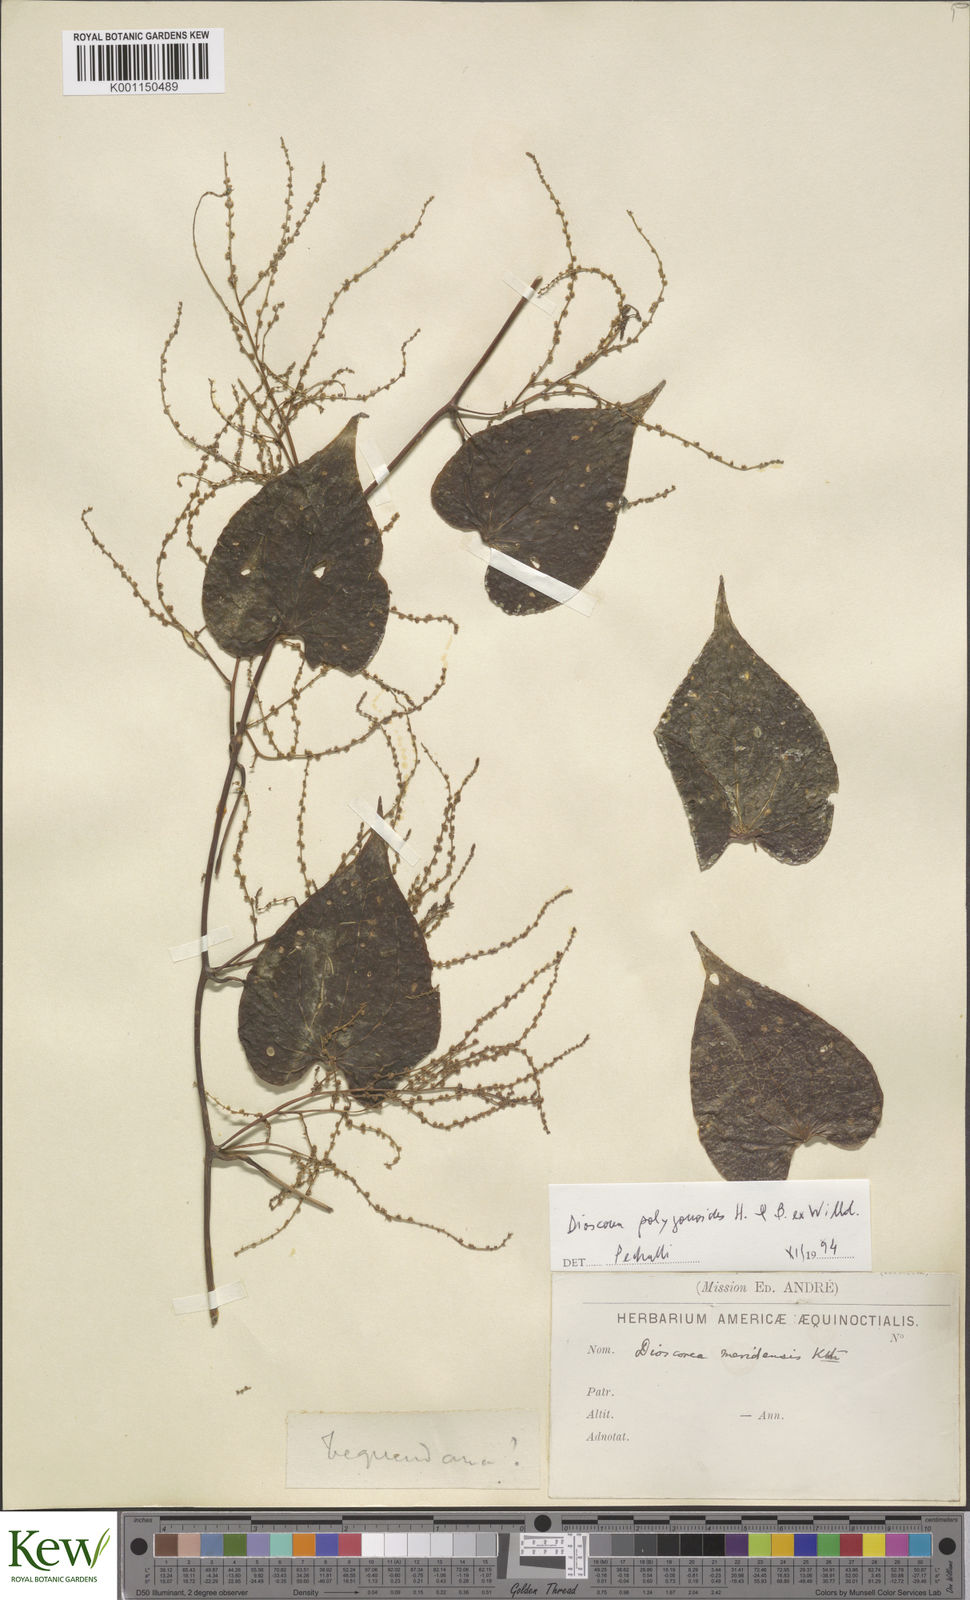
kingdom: Plantae
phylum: Tracheophyta
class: Liliopsida
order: Dioscoreales
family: Dioscoreaceae
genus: Dioscorea
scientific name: Dioscorea meridensis
